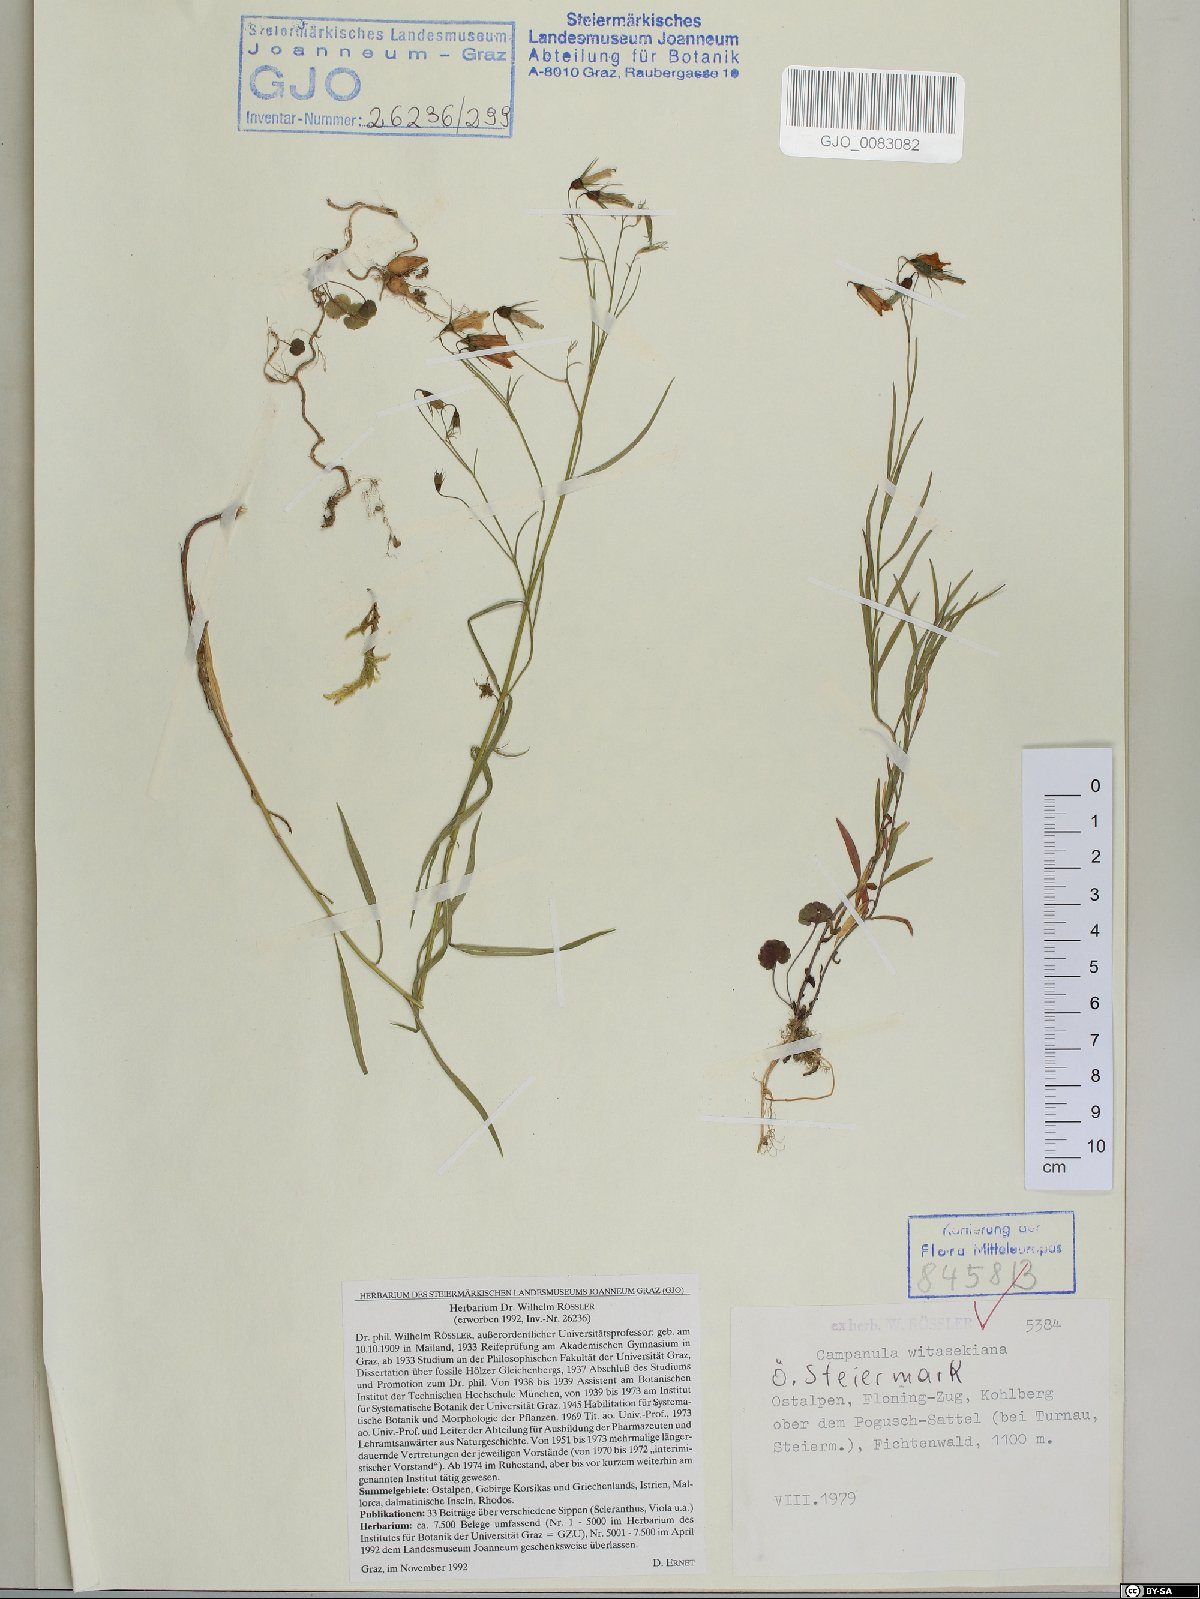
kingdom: Plantae
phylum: Tracheophyta
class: Magnoliopsida
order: Asterales
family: Campanulaceae
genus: Campanula
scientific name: Campanula witasekiana
